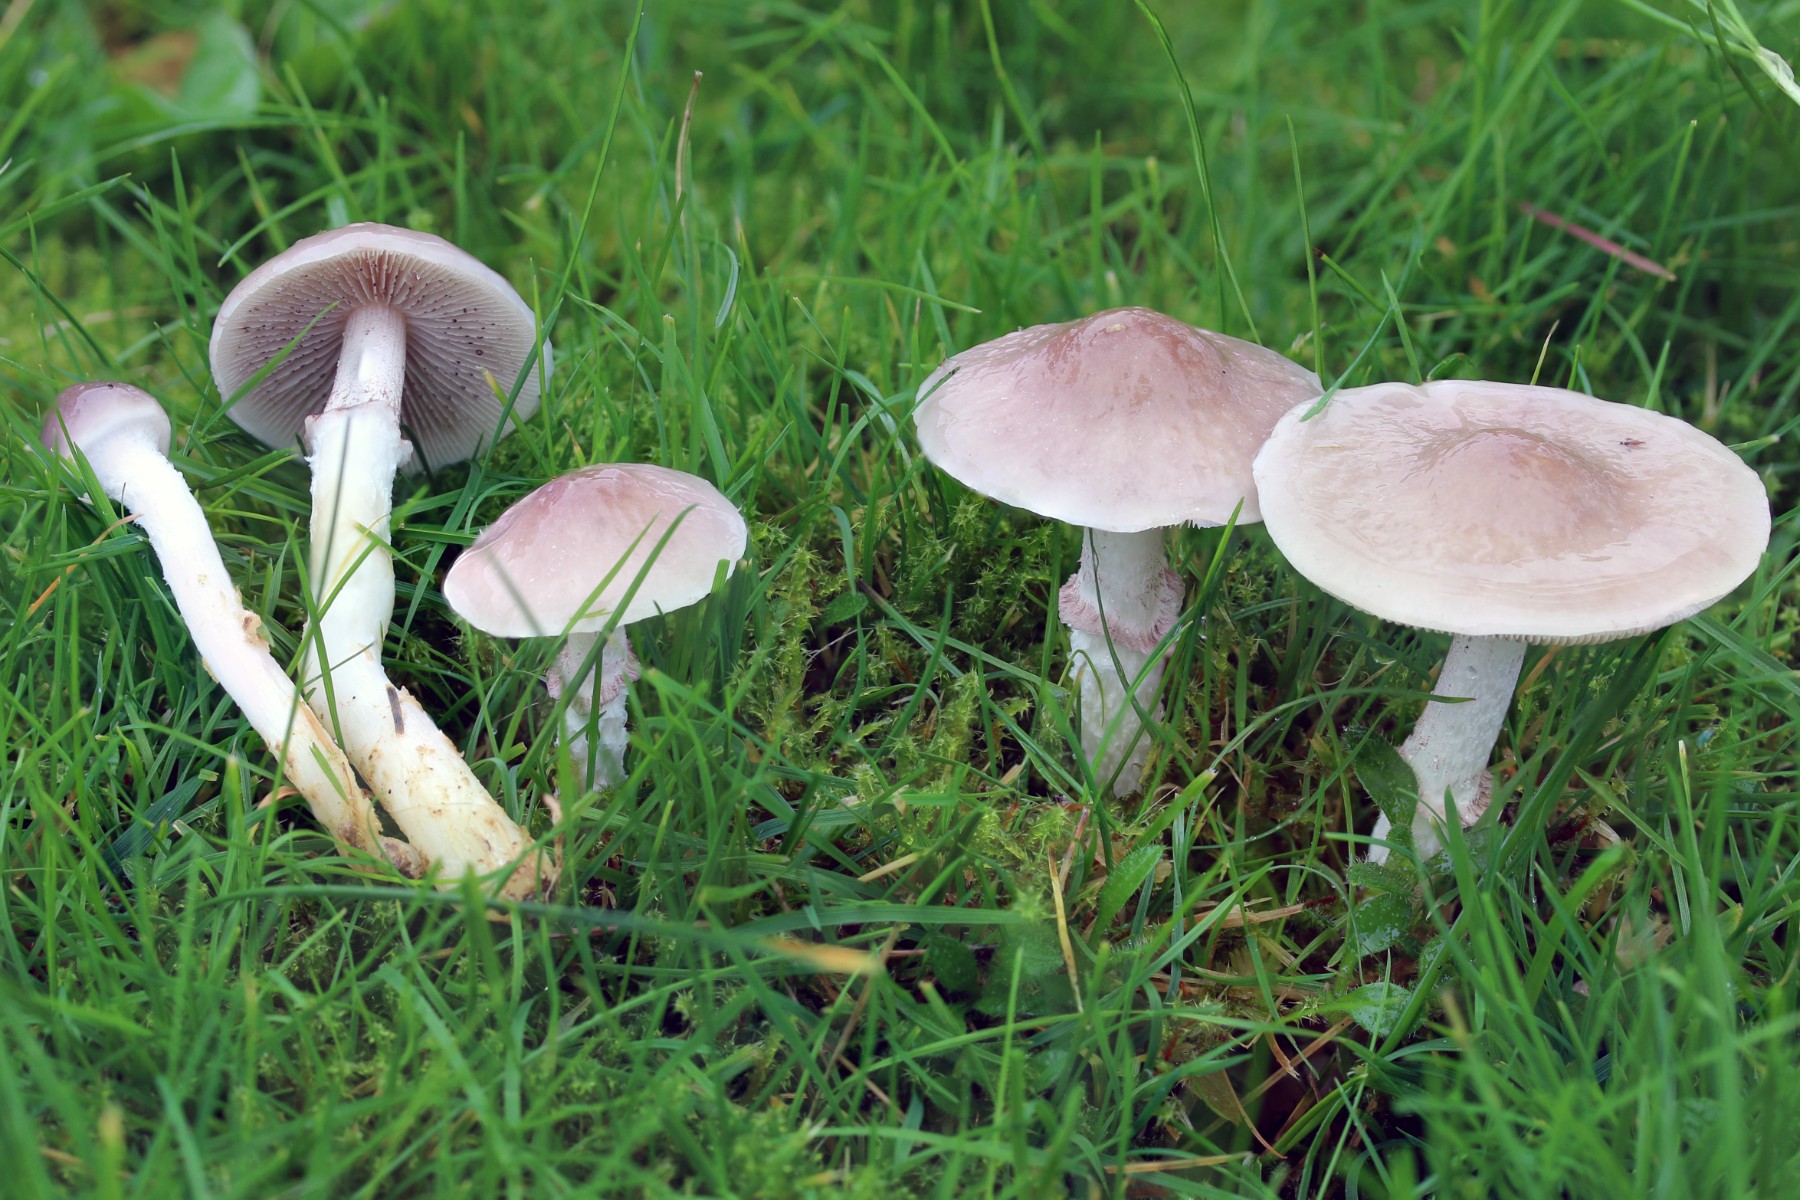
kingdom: Fungi
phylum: Basidiomycota
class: Agaricomycetes
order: Agaricales
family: Strophariaceae
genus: Stropharia
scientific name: Stropharia inuncta
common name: lillabrun bredblad
